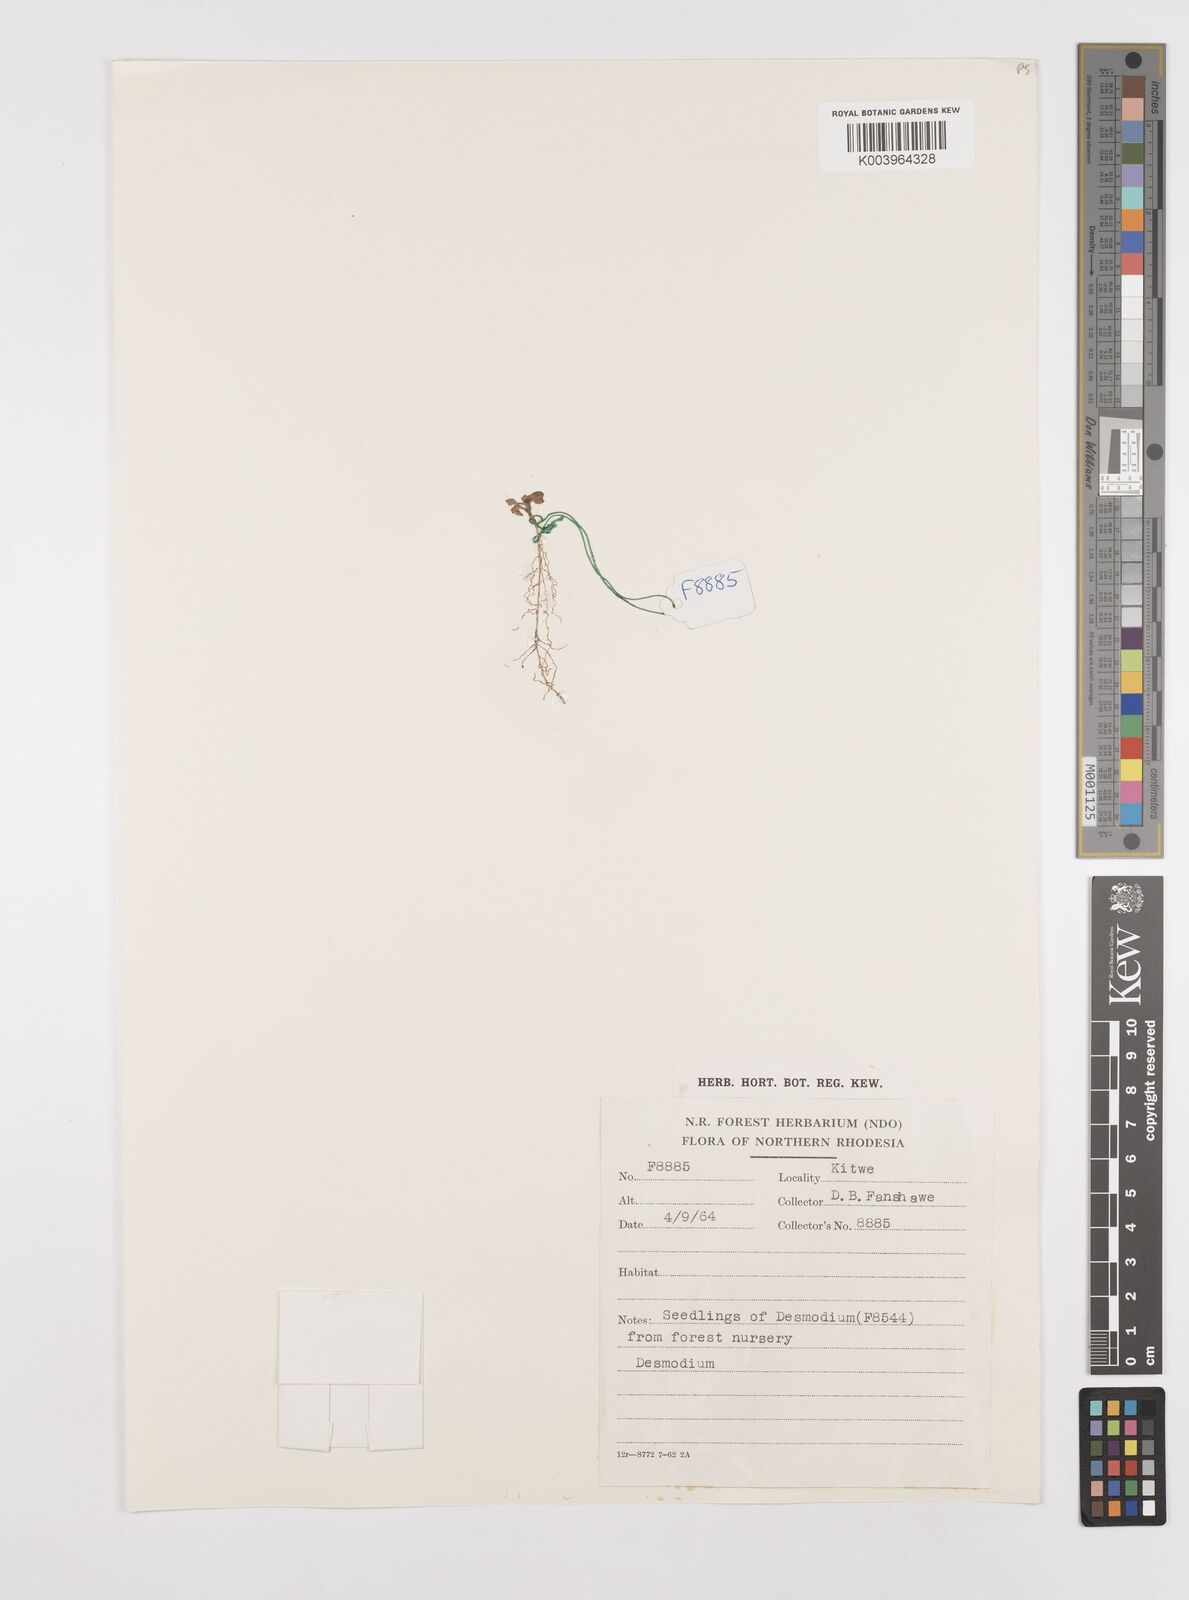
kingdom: Plantae
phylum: Tracheophyta
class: Magnoliopsida
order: Fabales
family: Fabaceae
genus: Desmodium
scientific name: Desmodium
